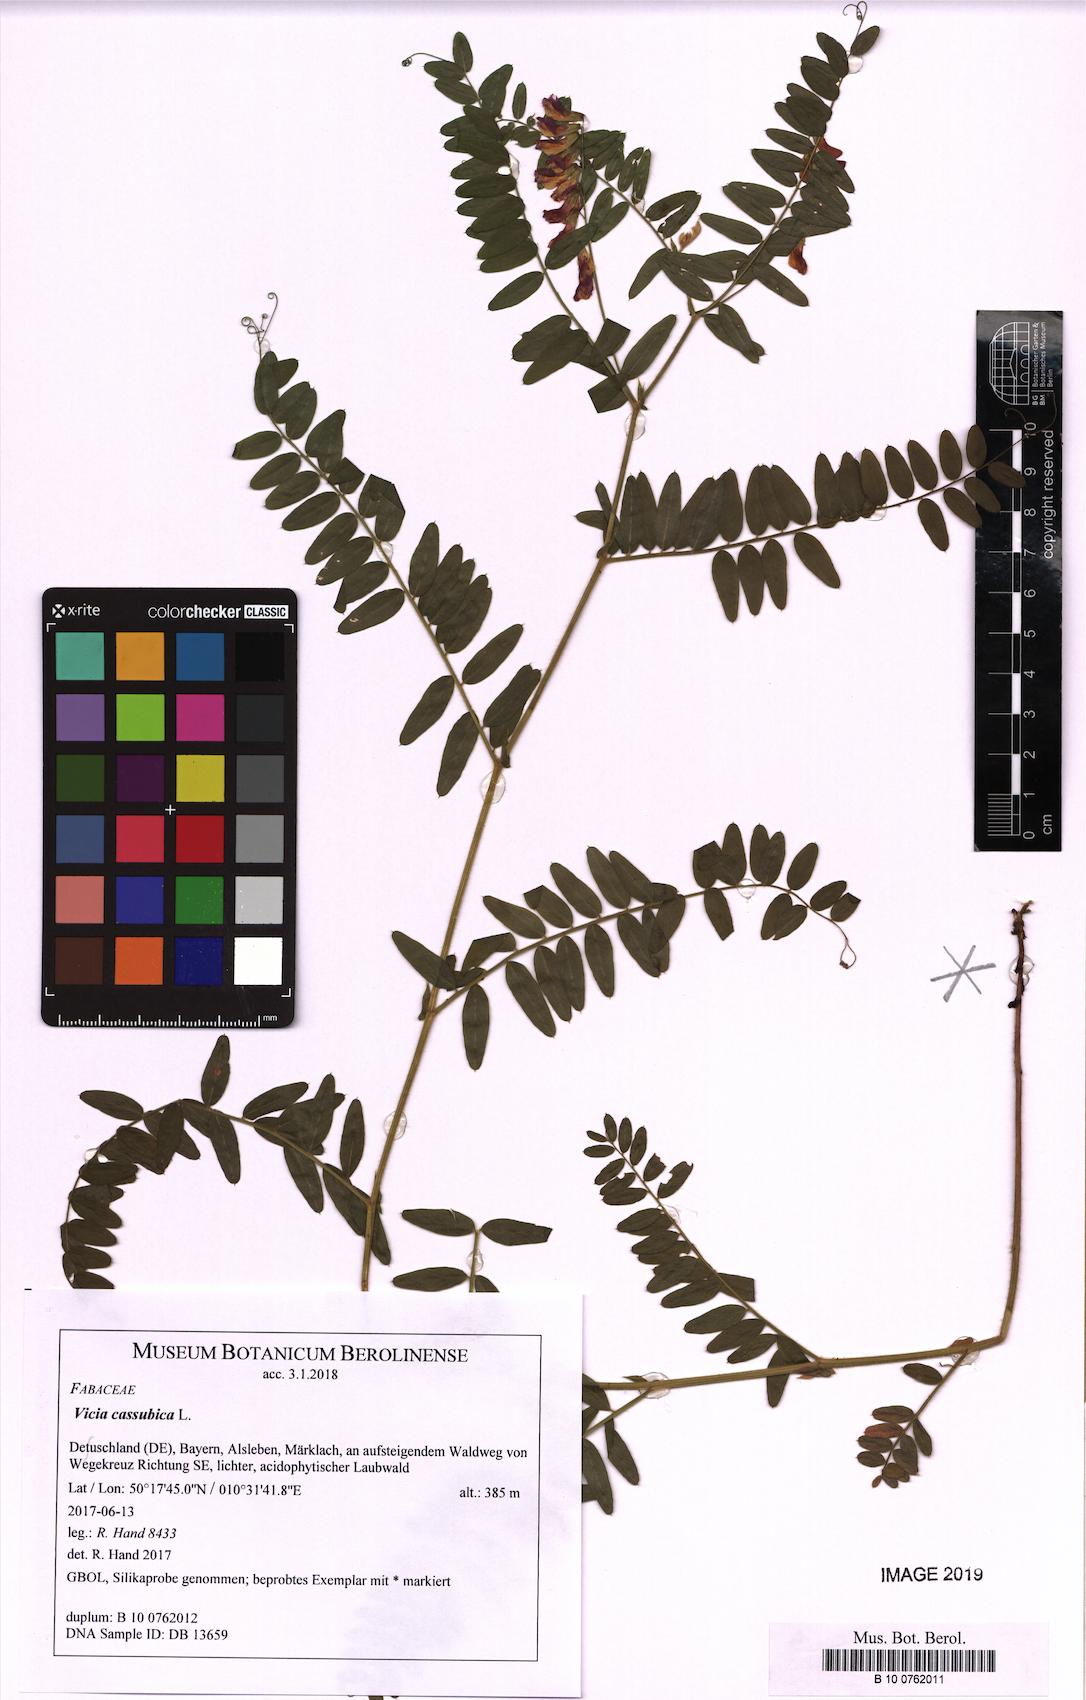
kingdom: Plantae
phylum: Tracheophyta
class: Magnoliopsida
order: Fabales
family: Fabaceae
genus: Vicia
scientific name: Vicia cassubica
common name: Danzig vetch
